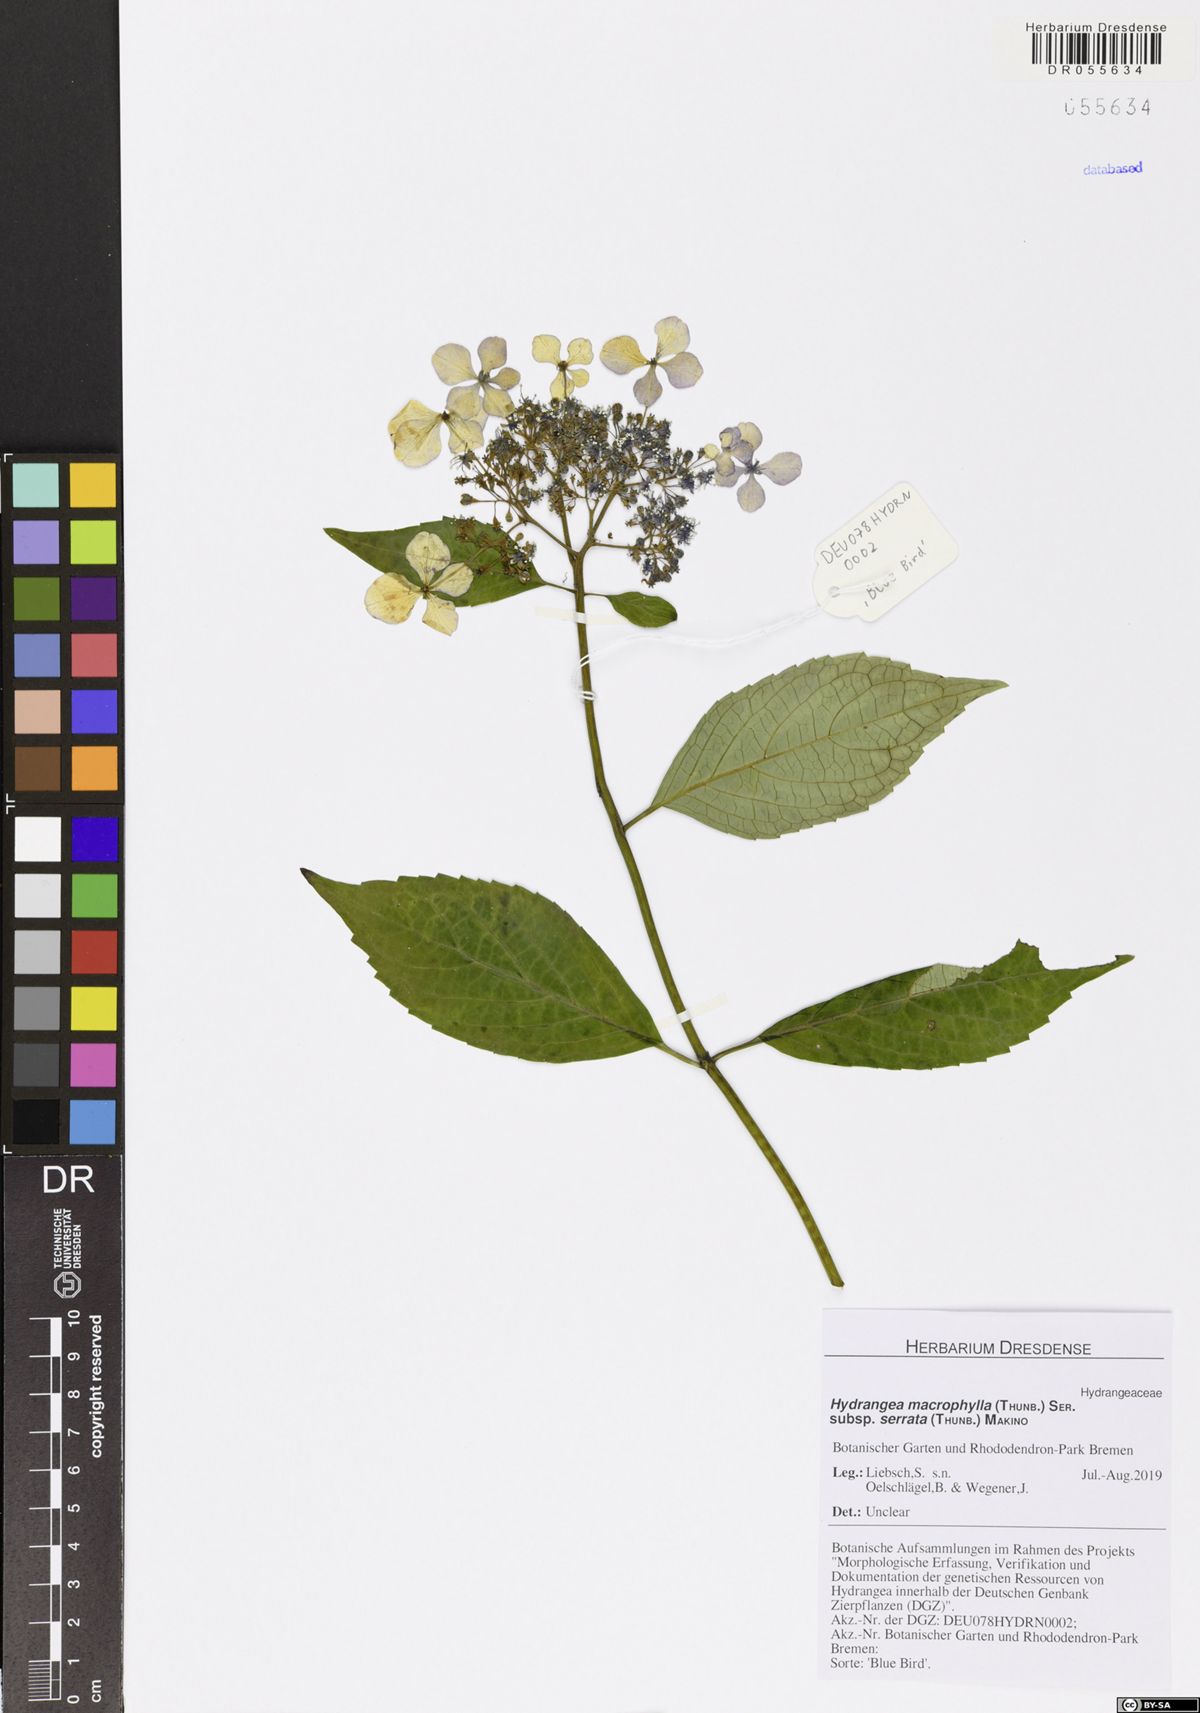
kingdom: Plantae
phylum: Tracheophyta
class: Magnoliopsida
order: Cornales
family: Hydrangeaceae
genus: Hydrangea
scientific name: Hydrangea serrata
